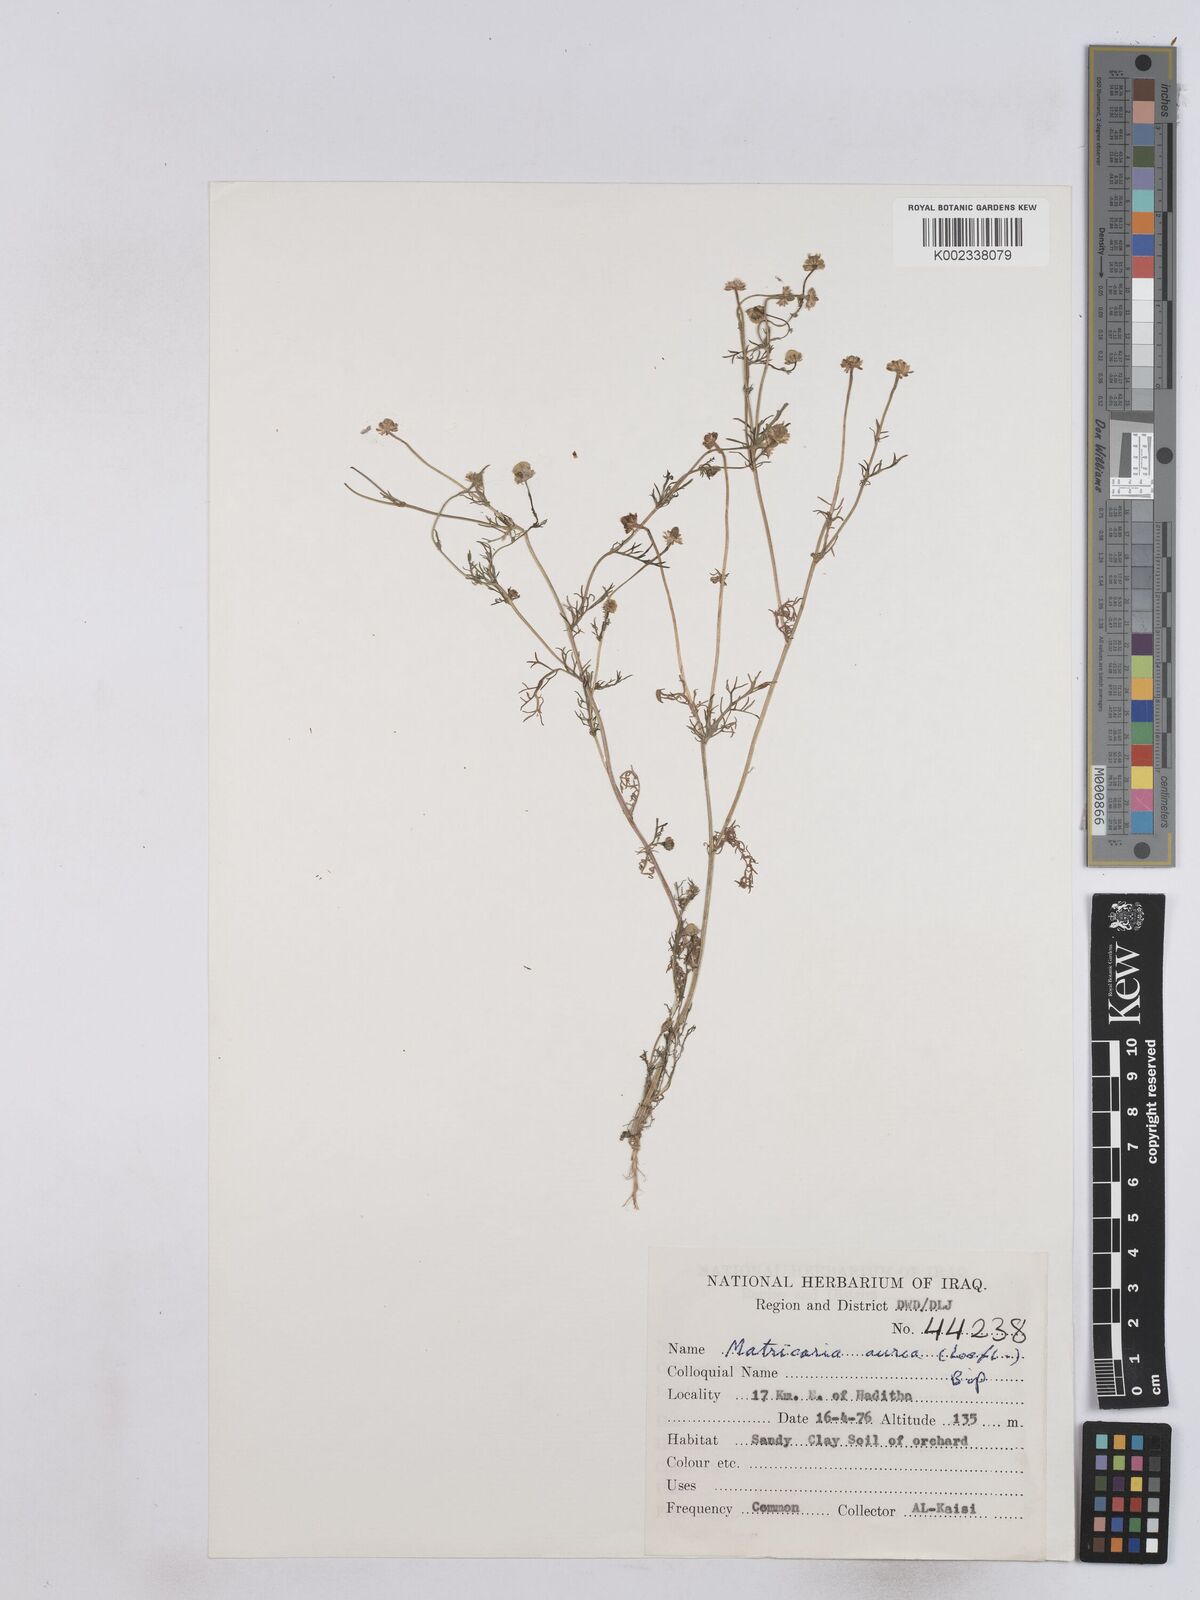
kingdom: Plantae
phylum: Tracheophyta
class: Magnoliopsida
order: Asterales
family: Asteraceae
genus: Matricaria
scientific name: Matricaria aurea
